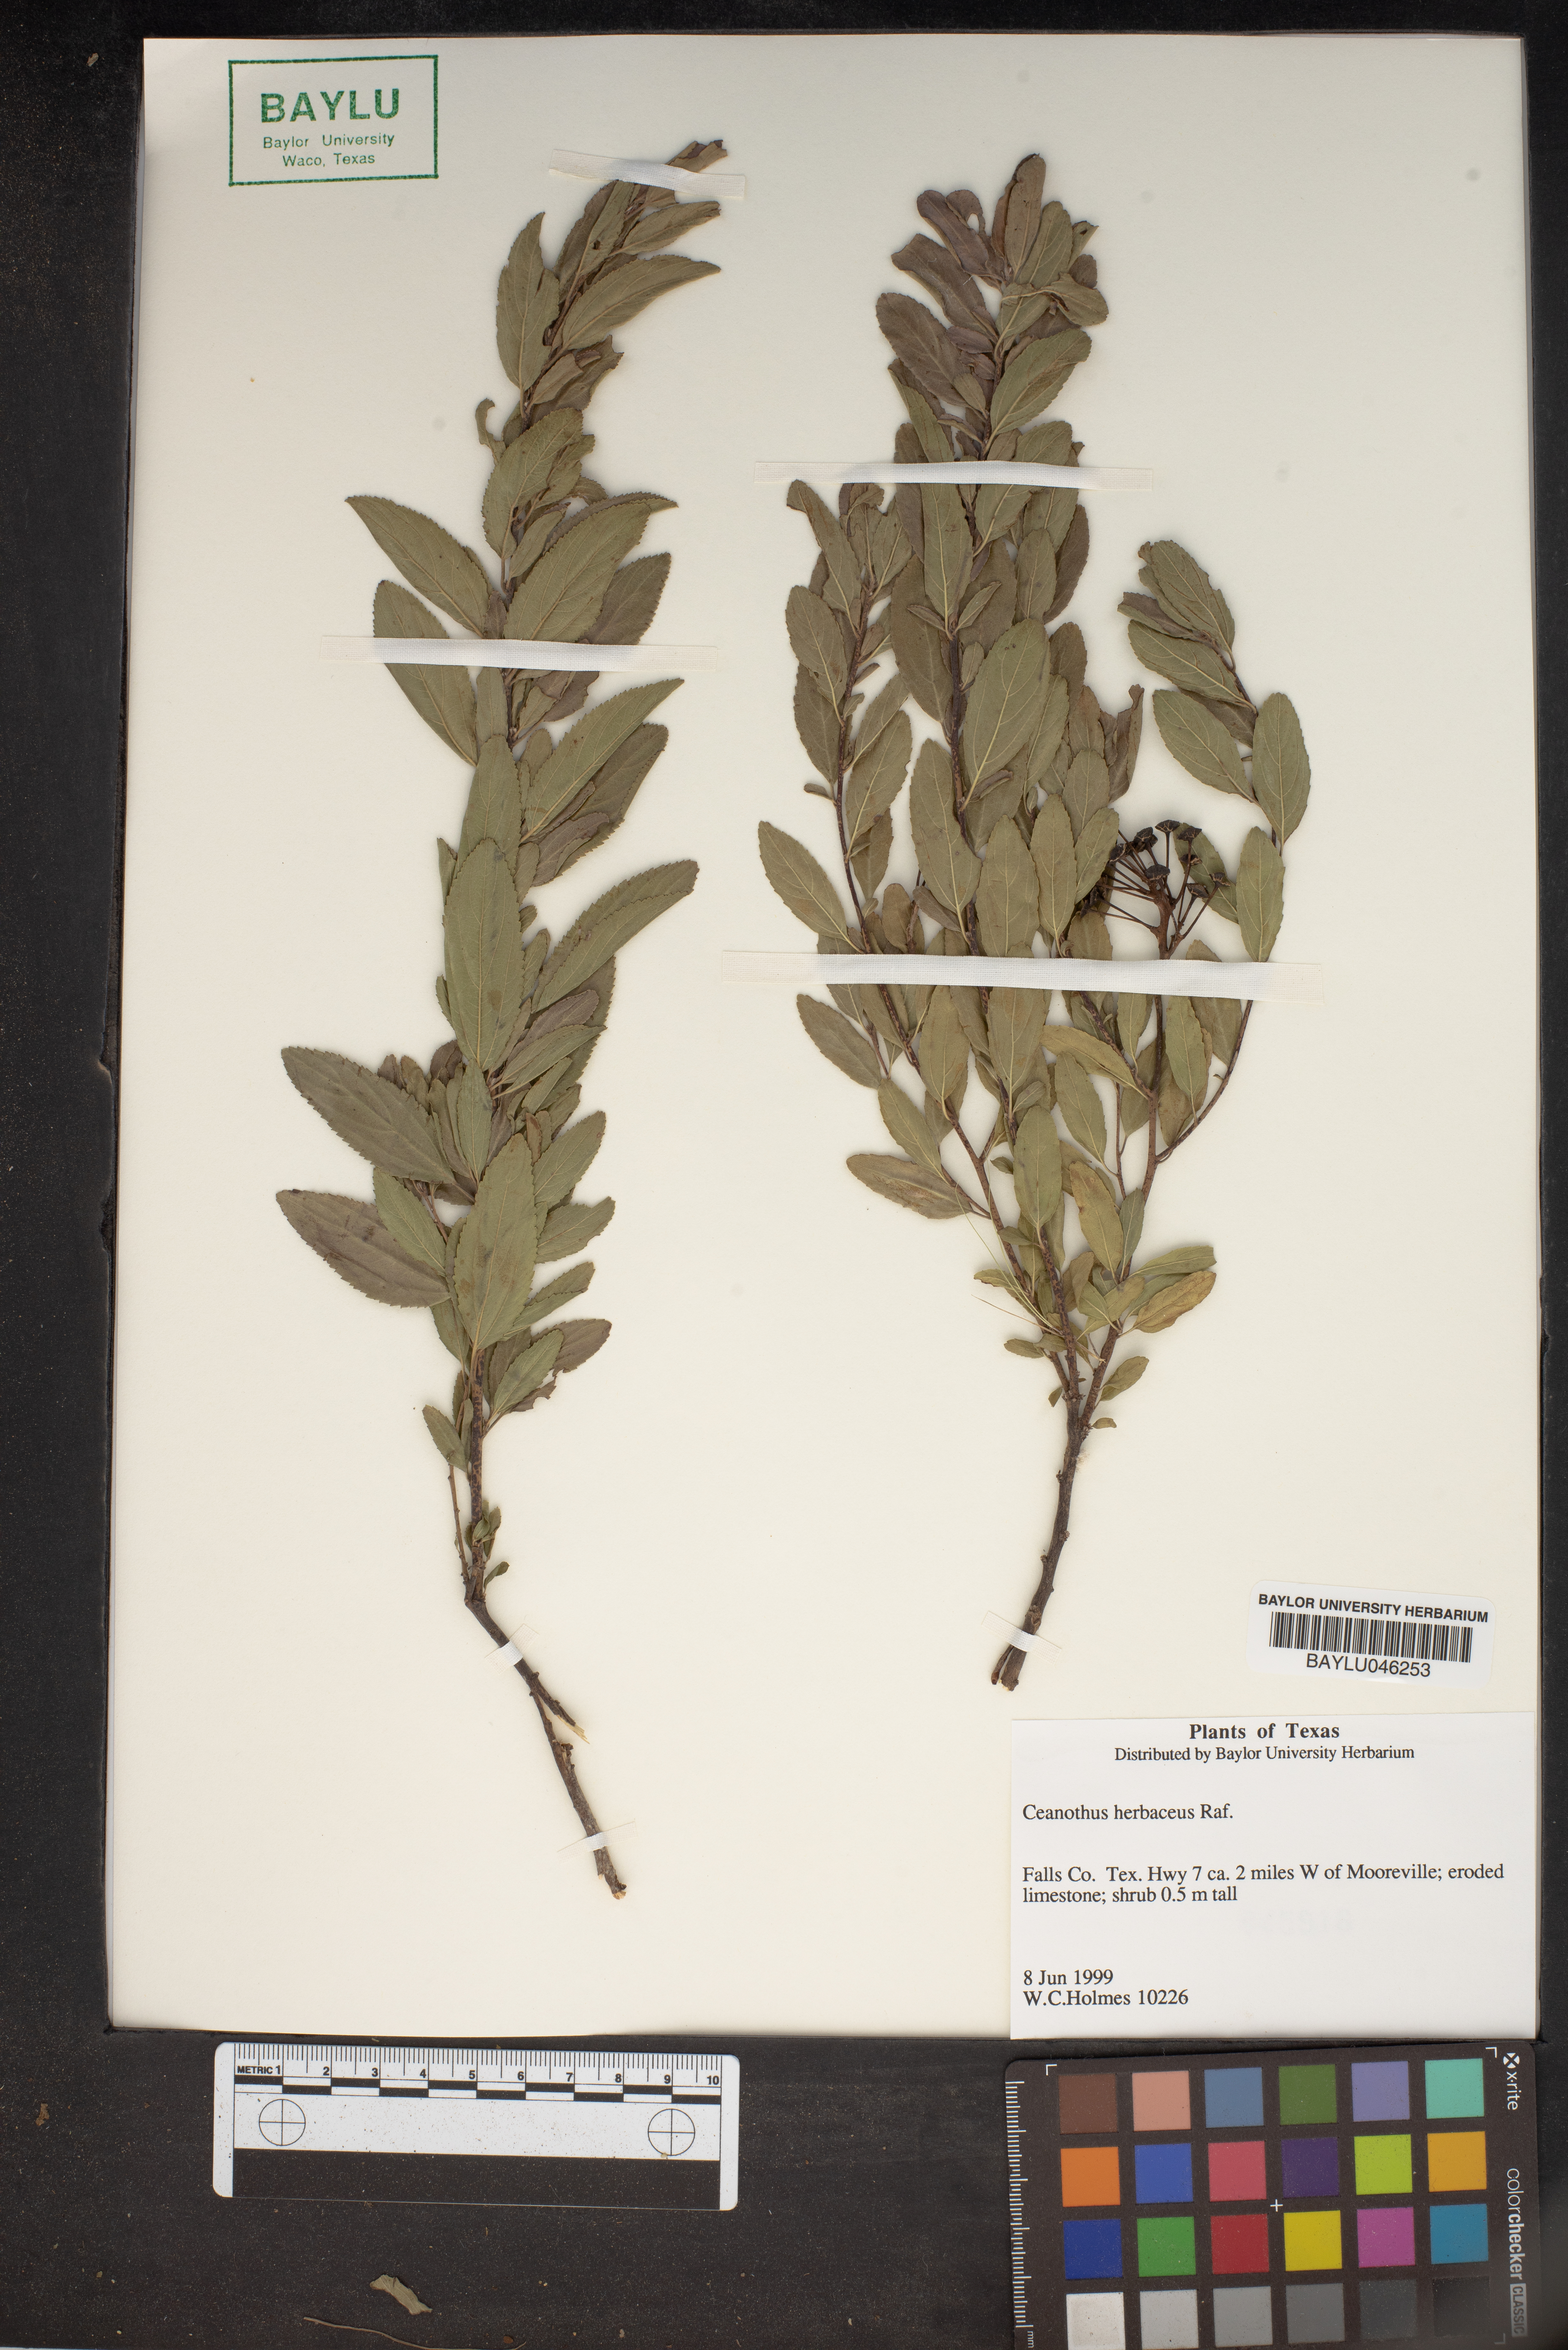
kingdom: Plantae
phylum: Tracheophyta
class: Magnoliopsida
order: Rosales
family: Rhamnaceae
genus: Ceanothus
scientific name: Ceanothus herbaceus
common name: Inland ceanothus
